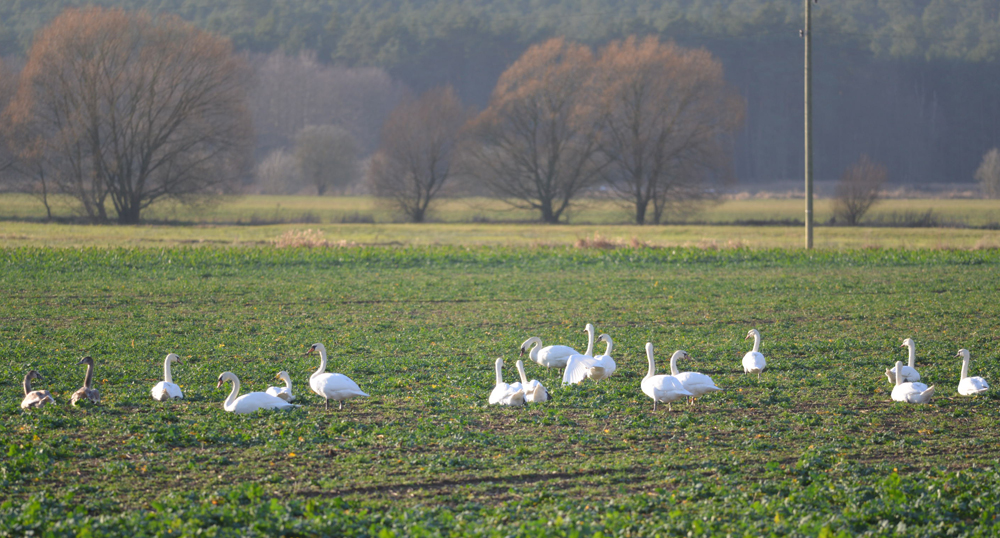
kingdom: Animalia
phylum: Chordata
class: Aves
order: Anseriformes
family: Anatidae
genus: Cygnus
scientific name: Cygnus olor
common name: Mute swan
